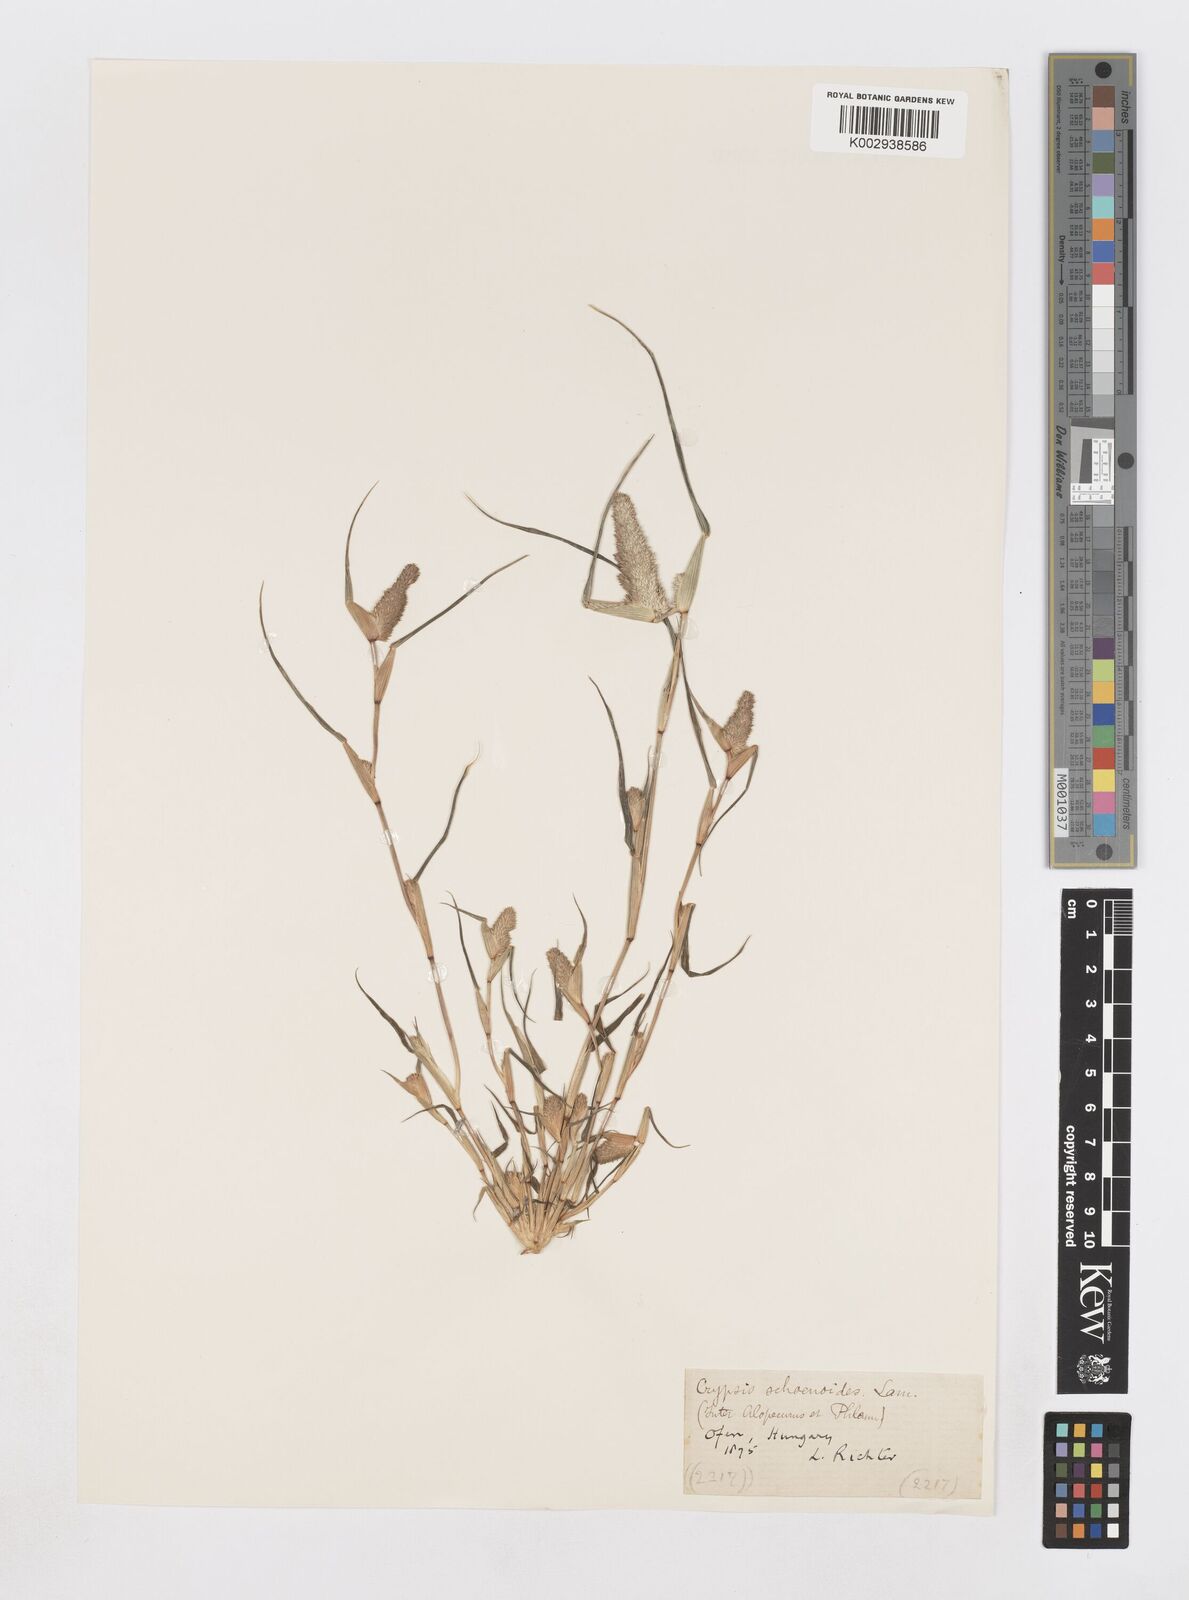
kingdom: Plantae
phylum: Tracheophyta
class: Liliopsida
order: Poales
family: Poaceae
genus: Sporobolus
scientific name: Sporobolus schoenoides
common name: Rush-like timothy
